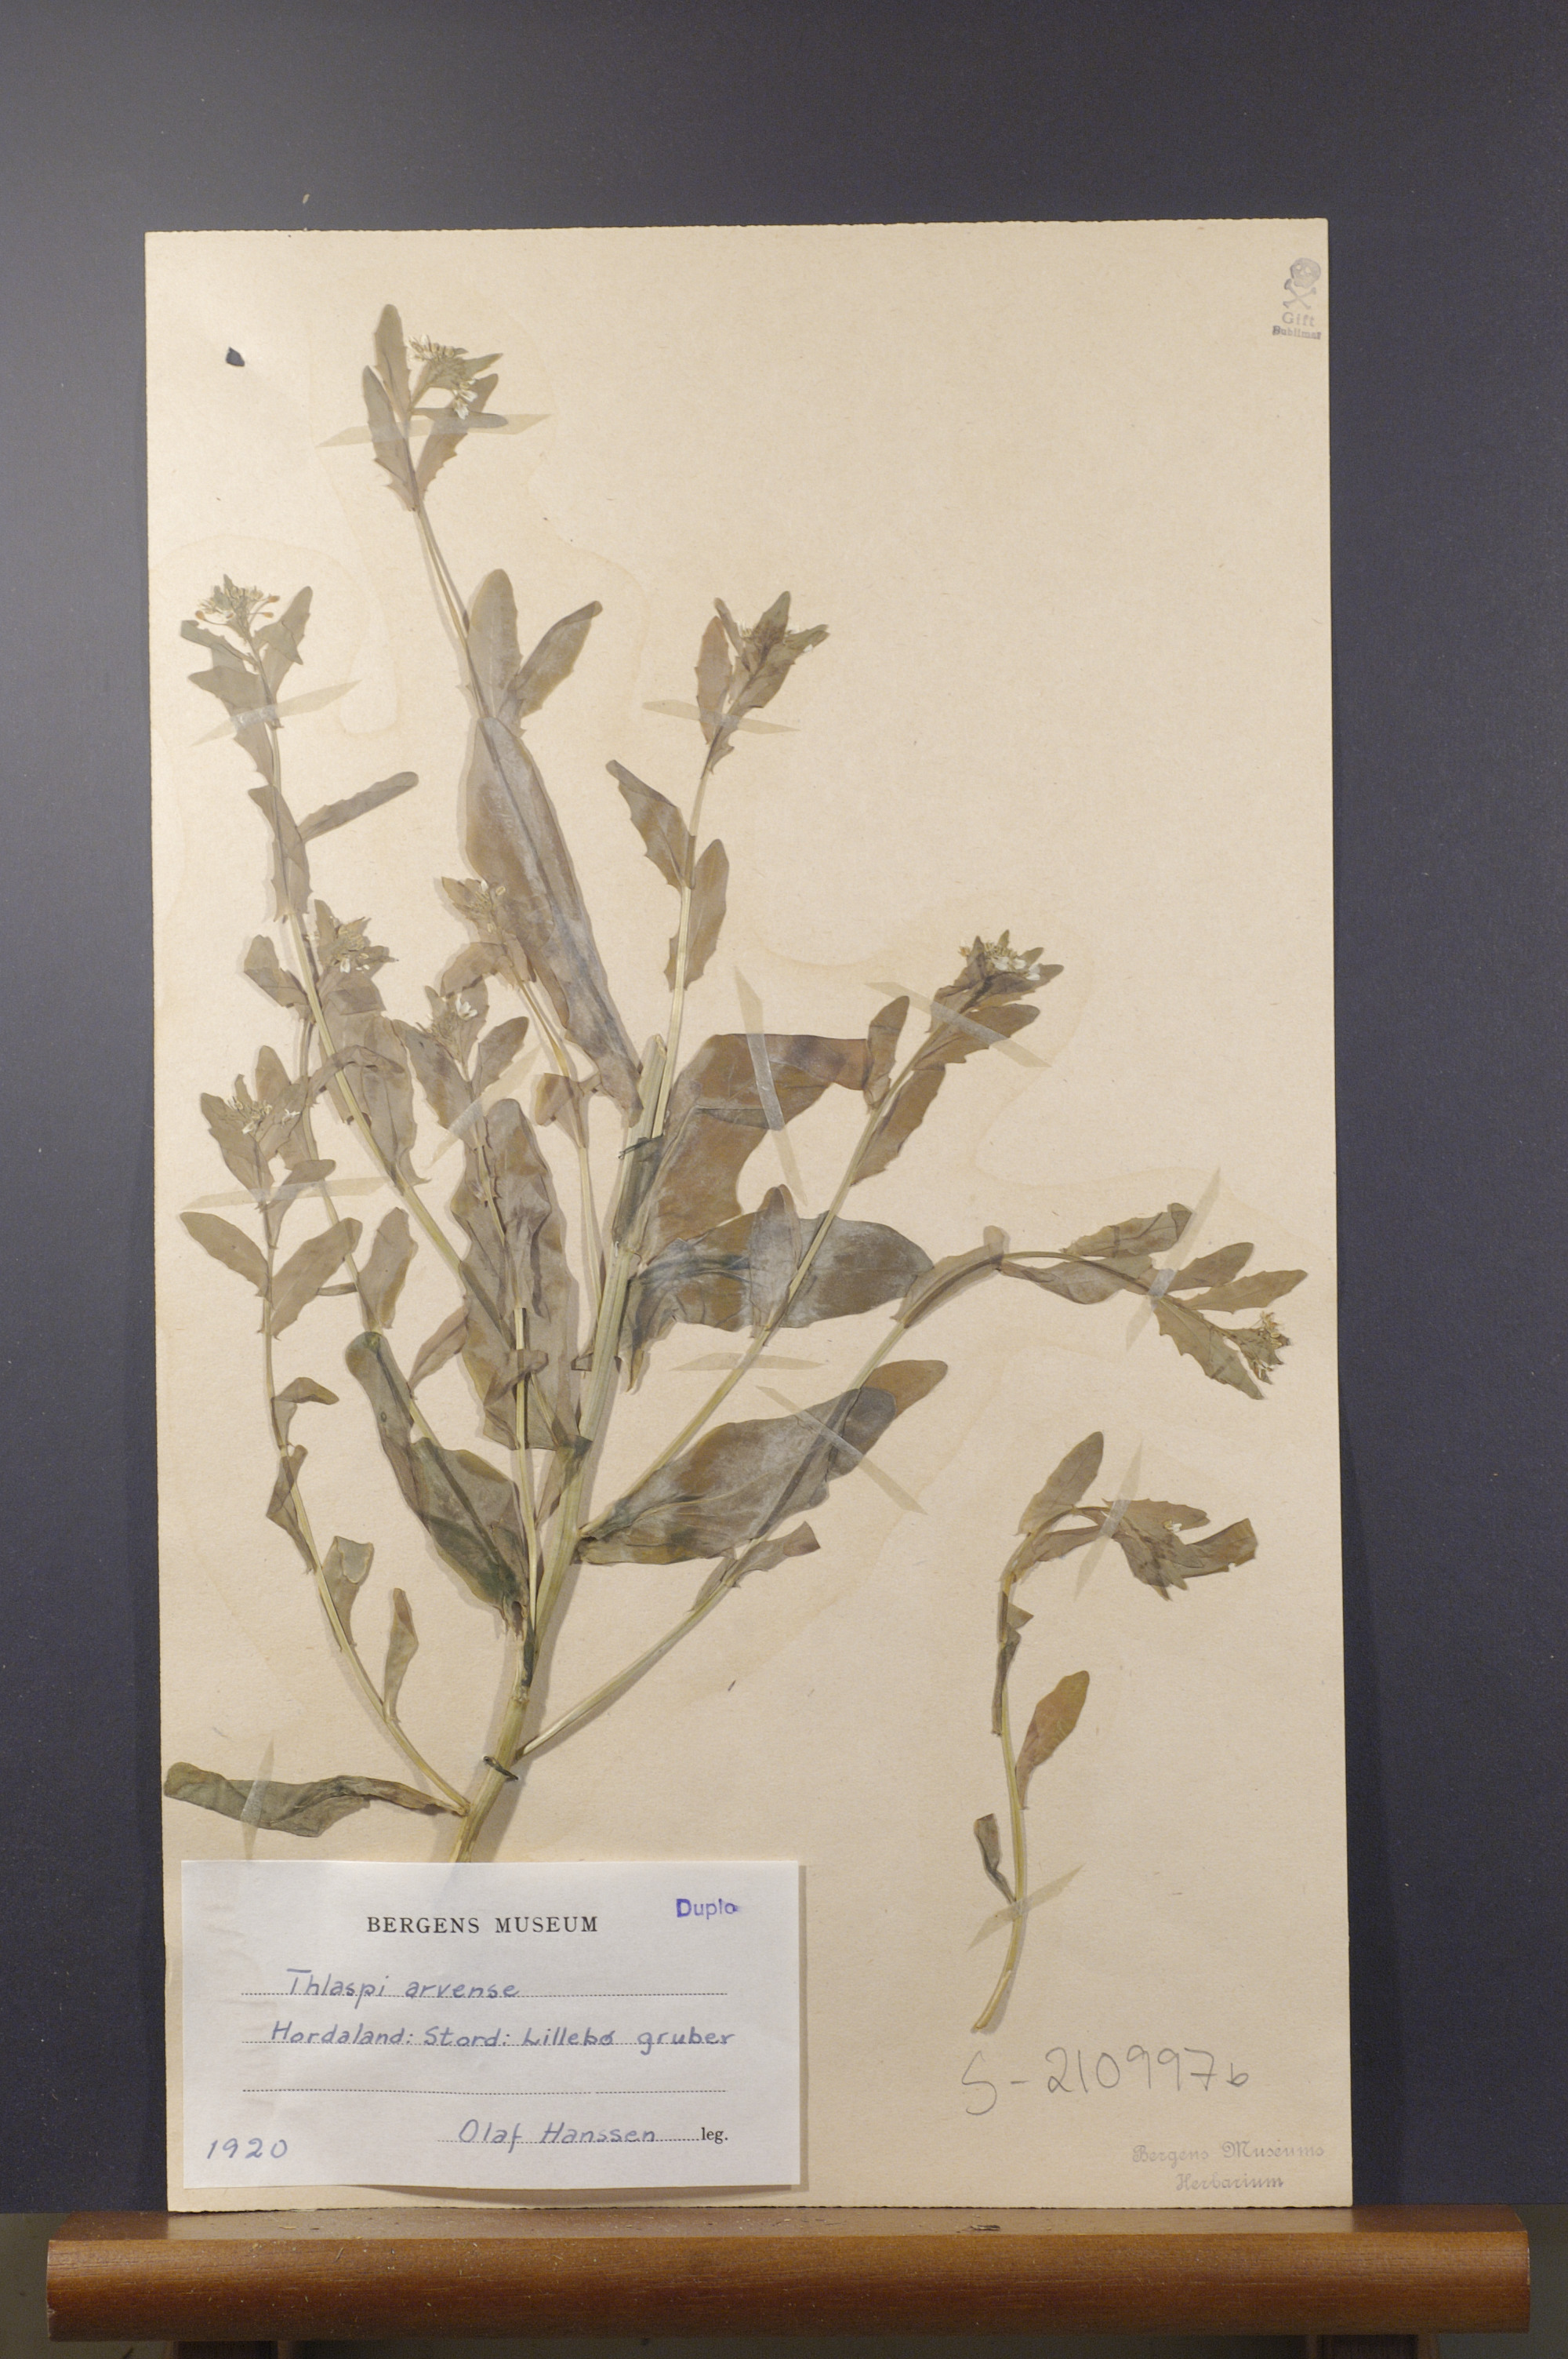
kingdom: Plantae
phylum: Tracheophyta
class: Magnoliopsida
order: Brassicales
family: Brassicaceae
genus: Thlaspi
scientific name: Thlaspi arvense
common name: Field pennycress
